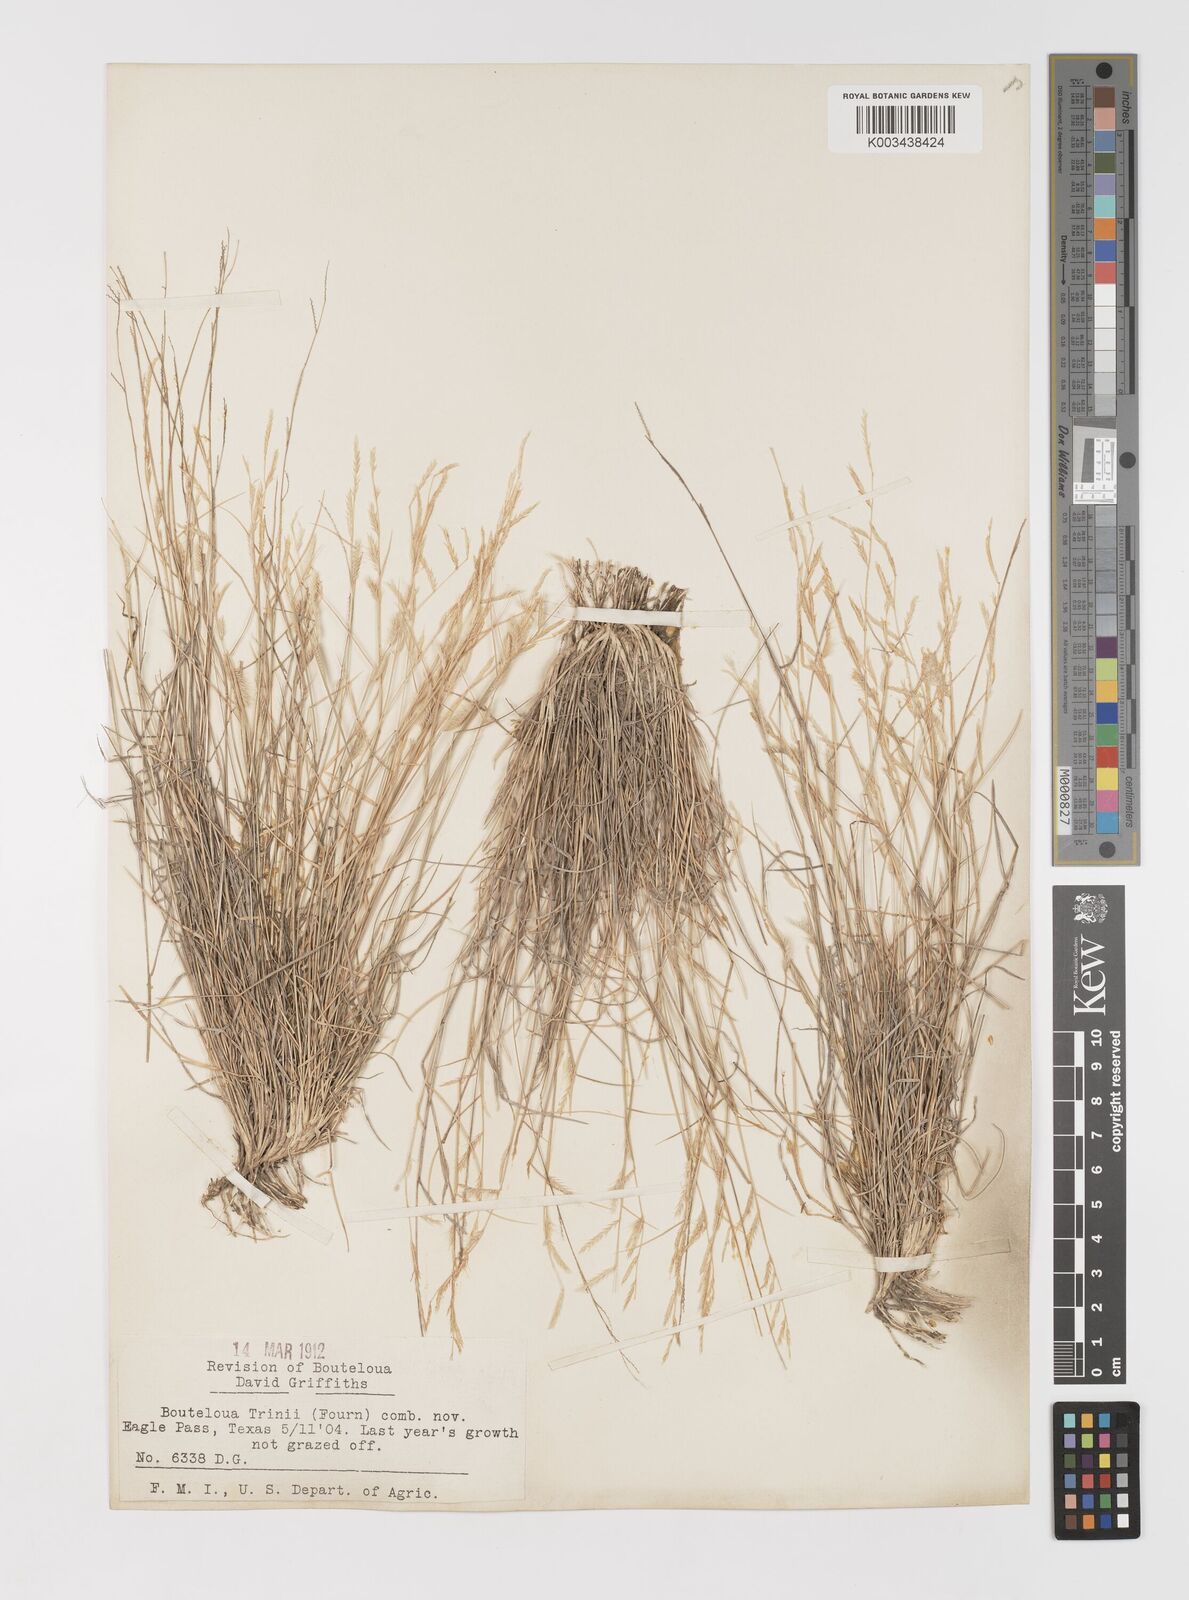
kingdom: Plantae
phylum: Tracheophyta
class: Liliopsida
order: Poales
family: Poaceae
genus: Bouteloua
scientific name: Bouteloua trifida
